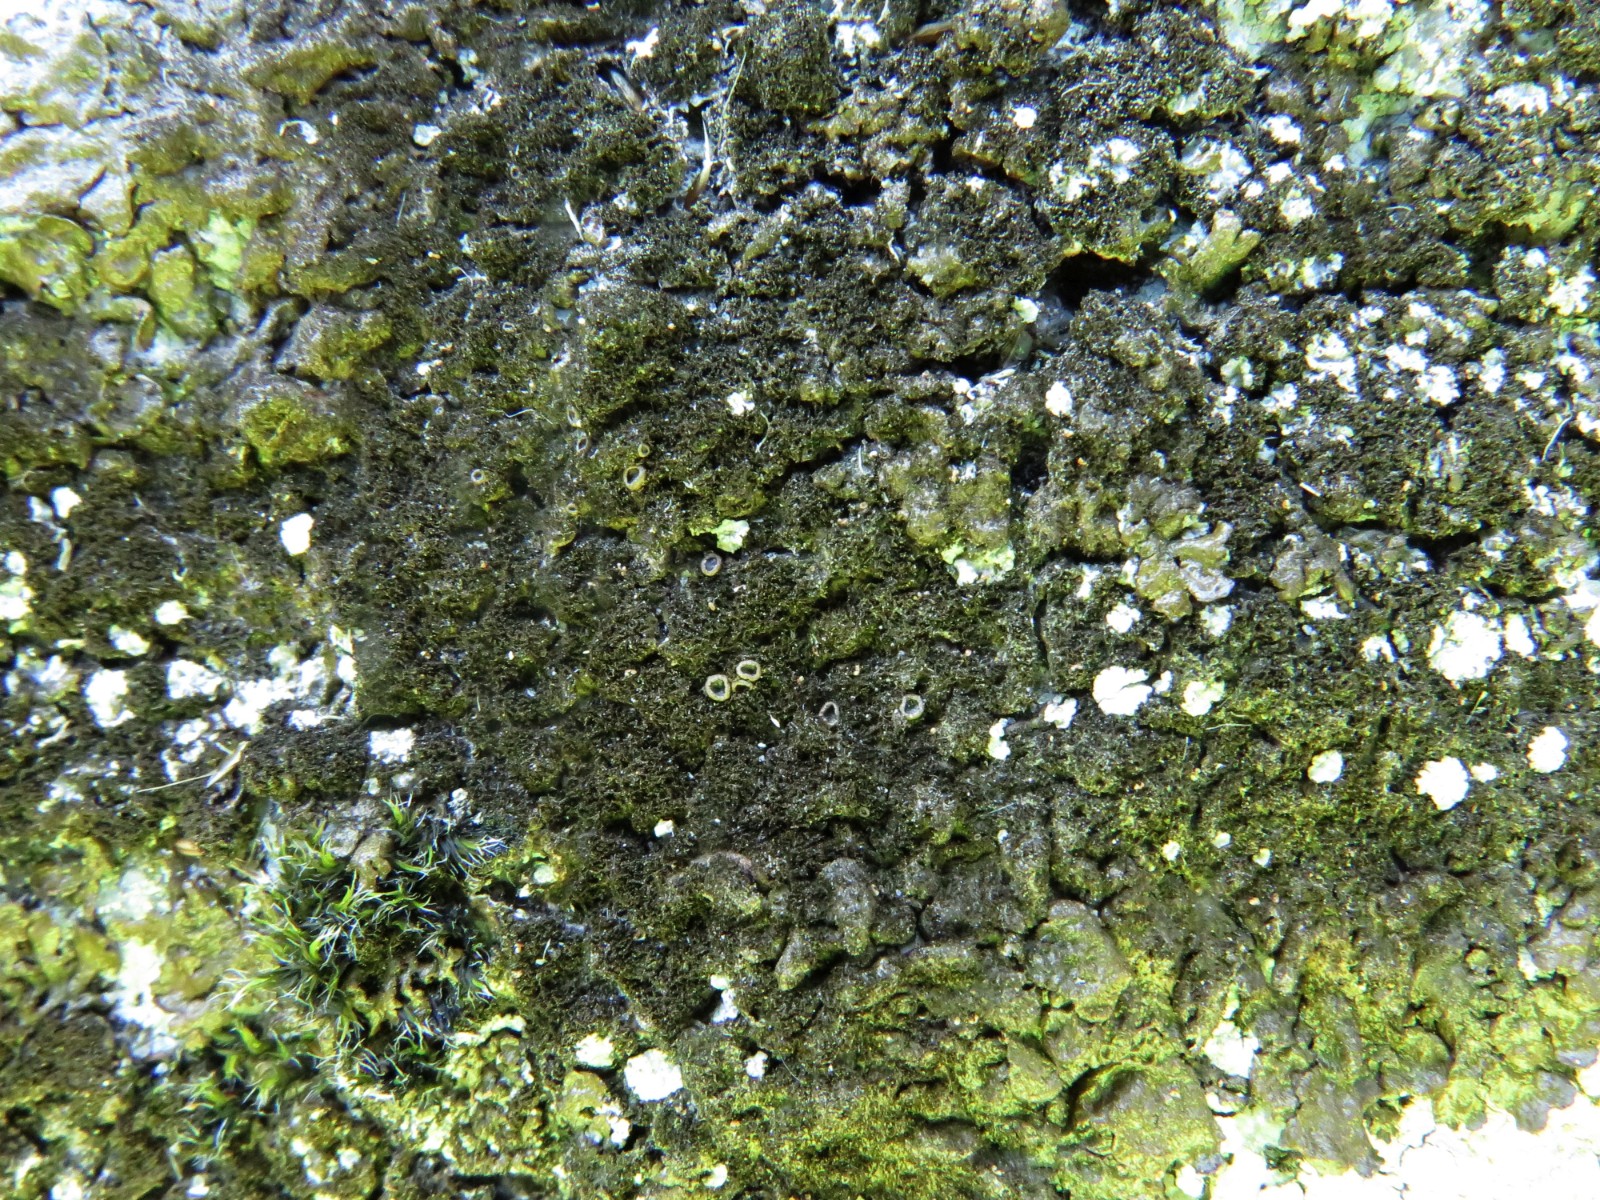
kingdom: Fungi
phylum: Ascomycota
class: Lecanoromycetes
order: Lecanorales
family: Parmeliaceae
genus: Melanelixia
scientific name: Melanelixia fuliginosa
